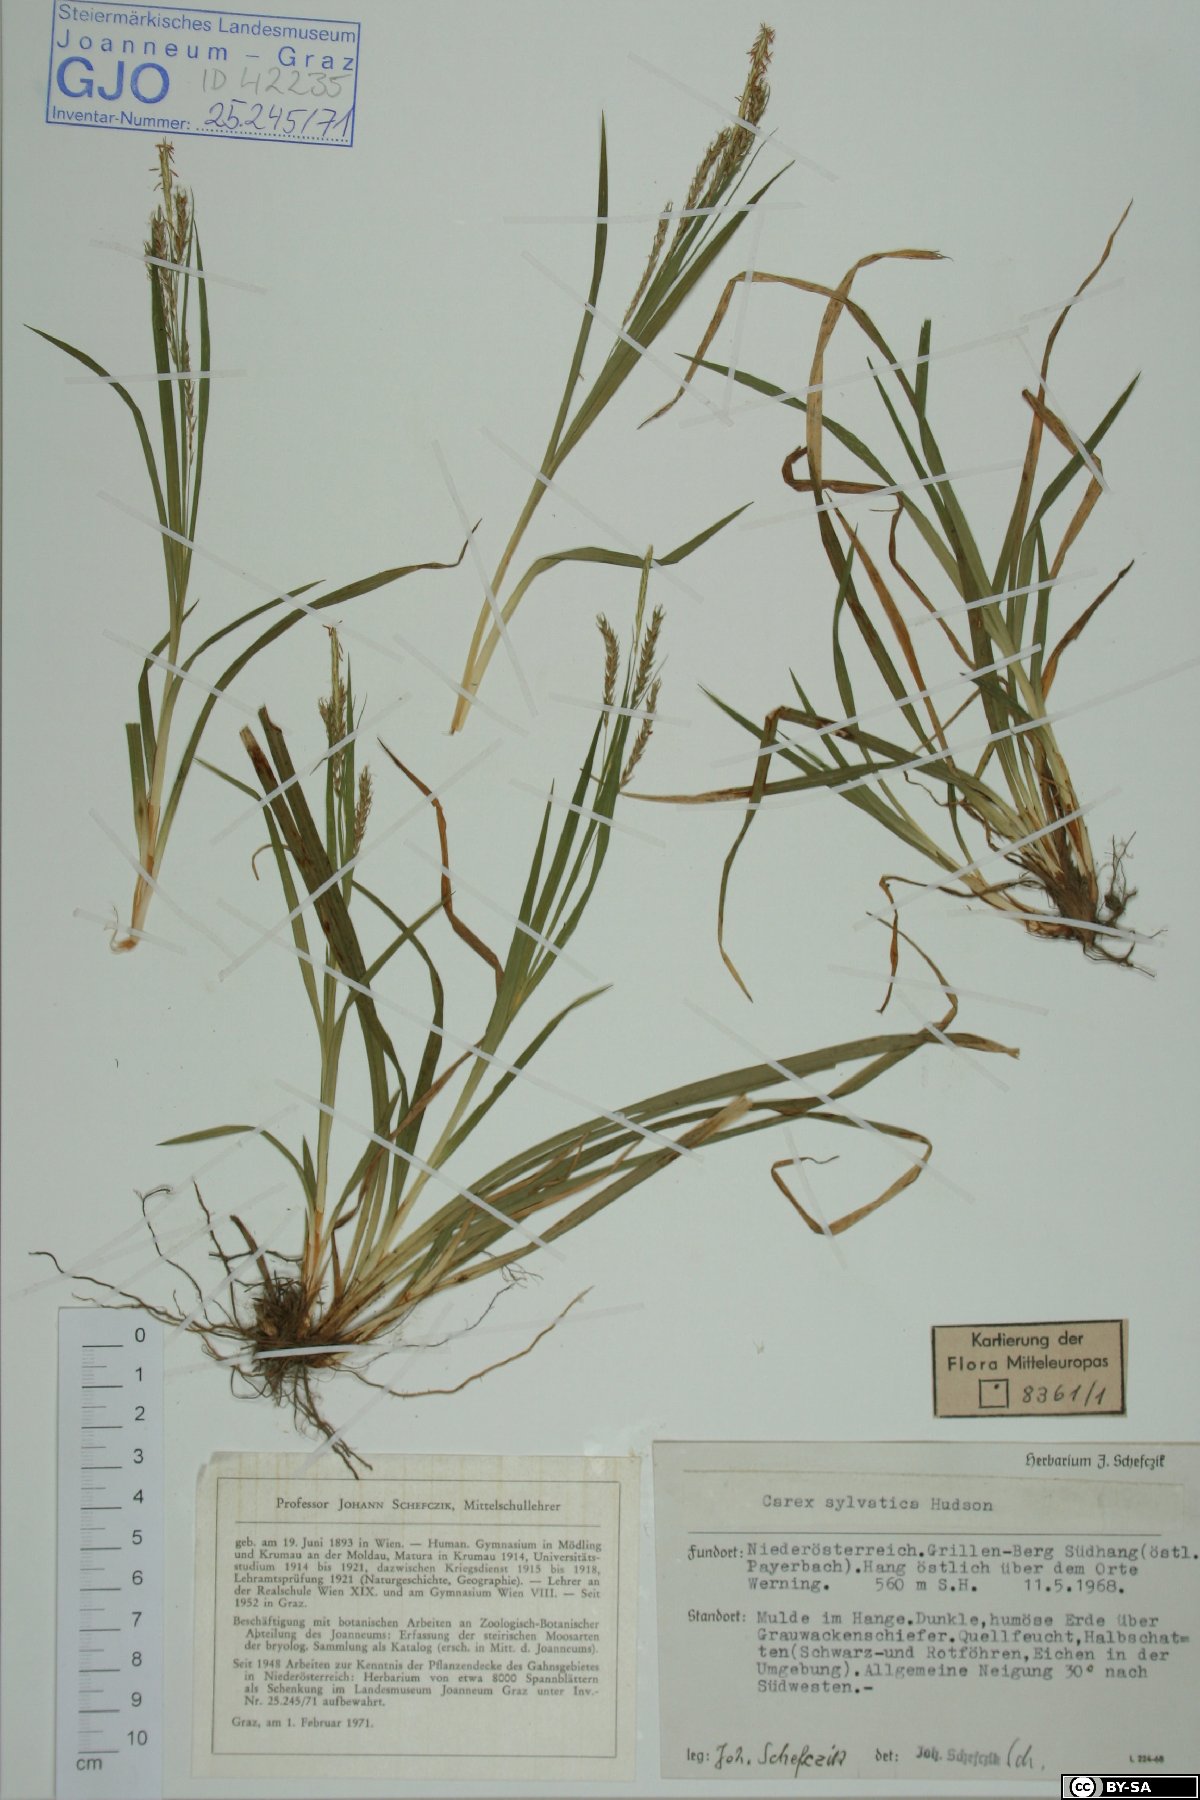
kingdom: Plantae
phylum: Tracheophyta
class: Liliopsida
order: Poales
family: Cyperaceae
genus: Carex
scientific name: Carex sylvatica
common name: Wood-sedge
